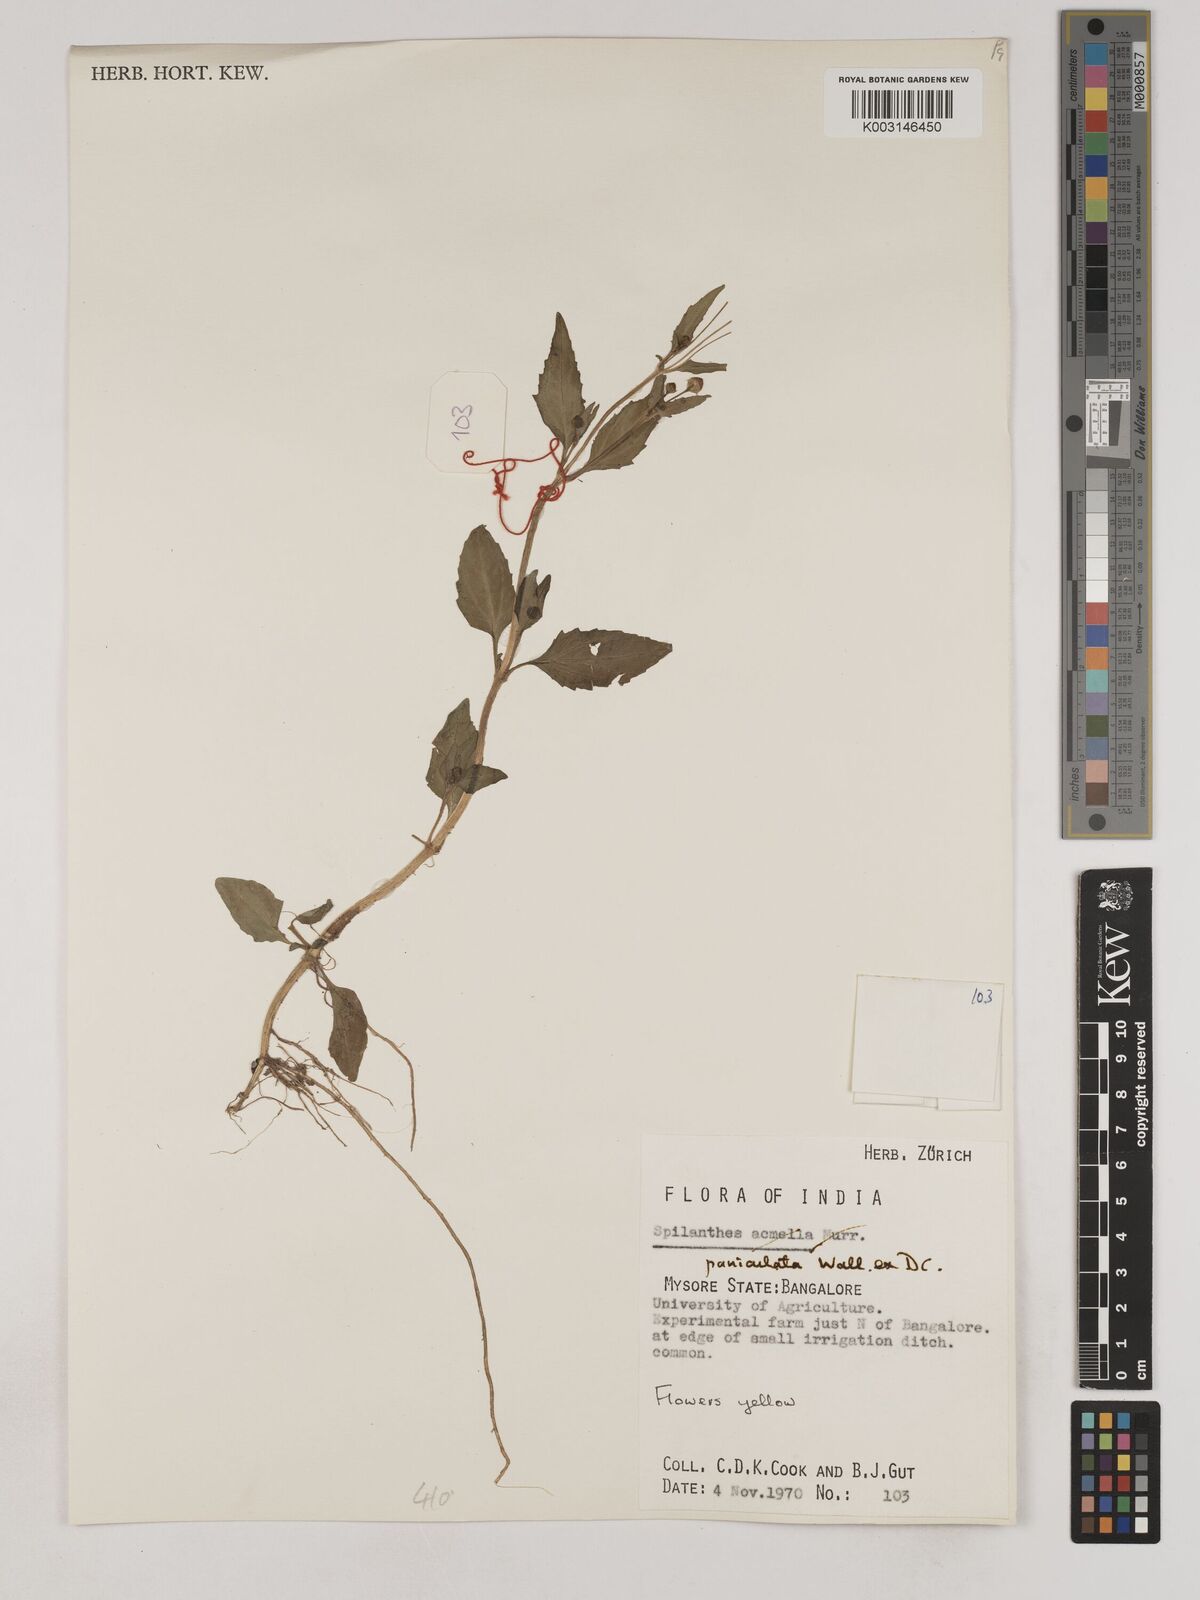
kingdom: Plantae
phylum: Tracheophyta
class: Magnoliopsida
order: Asterales
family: Asteraceae
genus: Acmella
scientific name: Acmella paniculata
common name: Panicled spot flower
